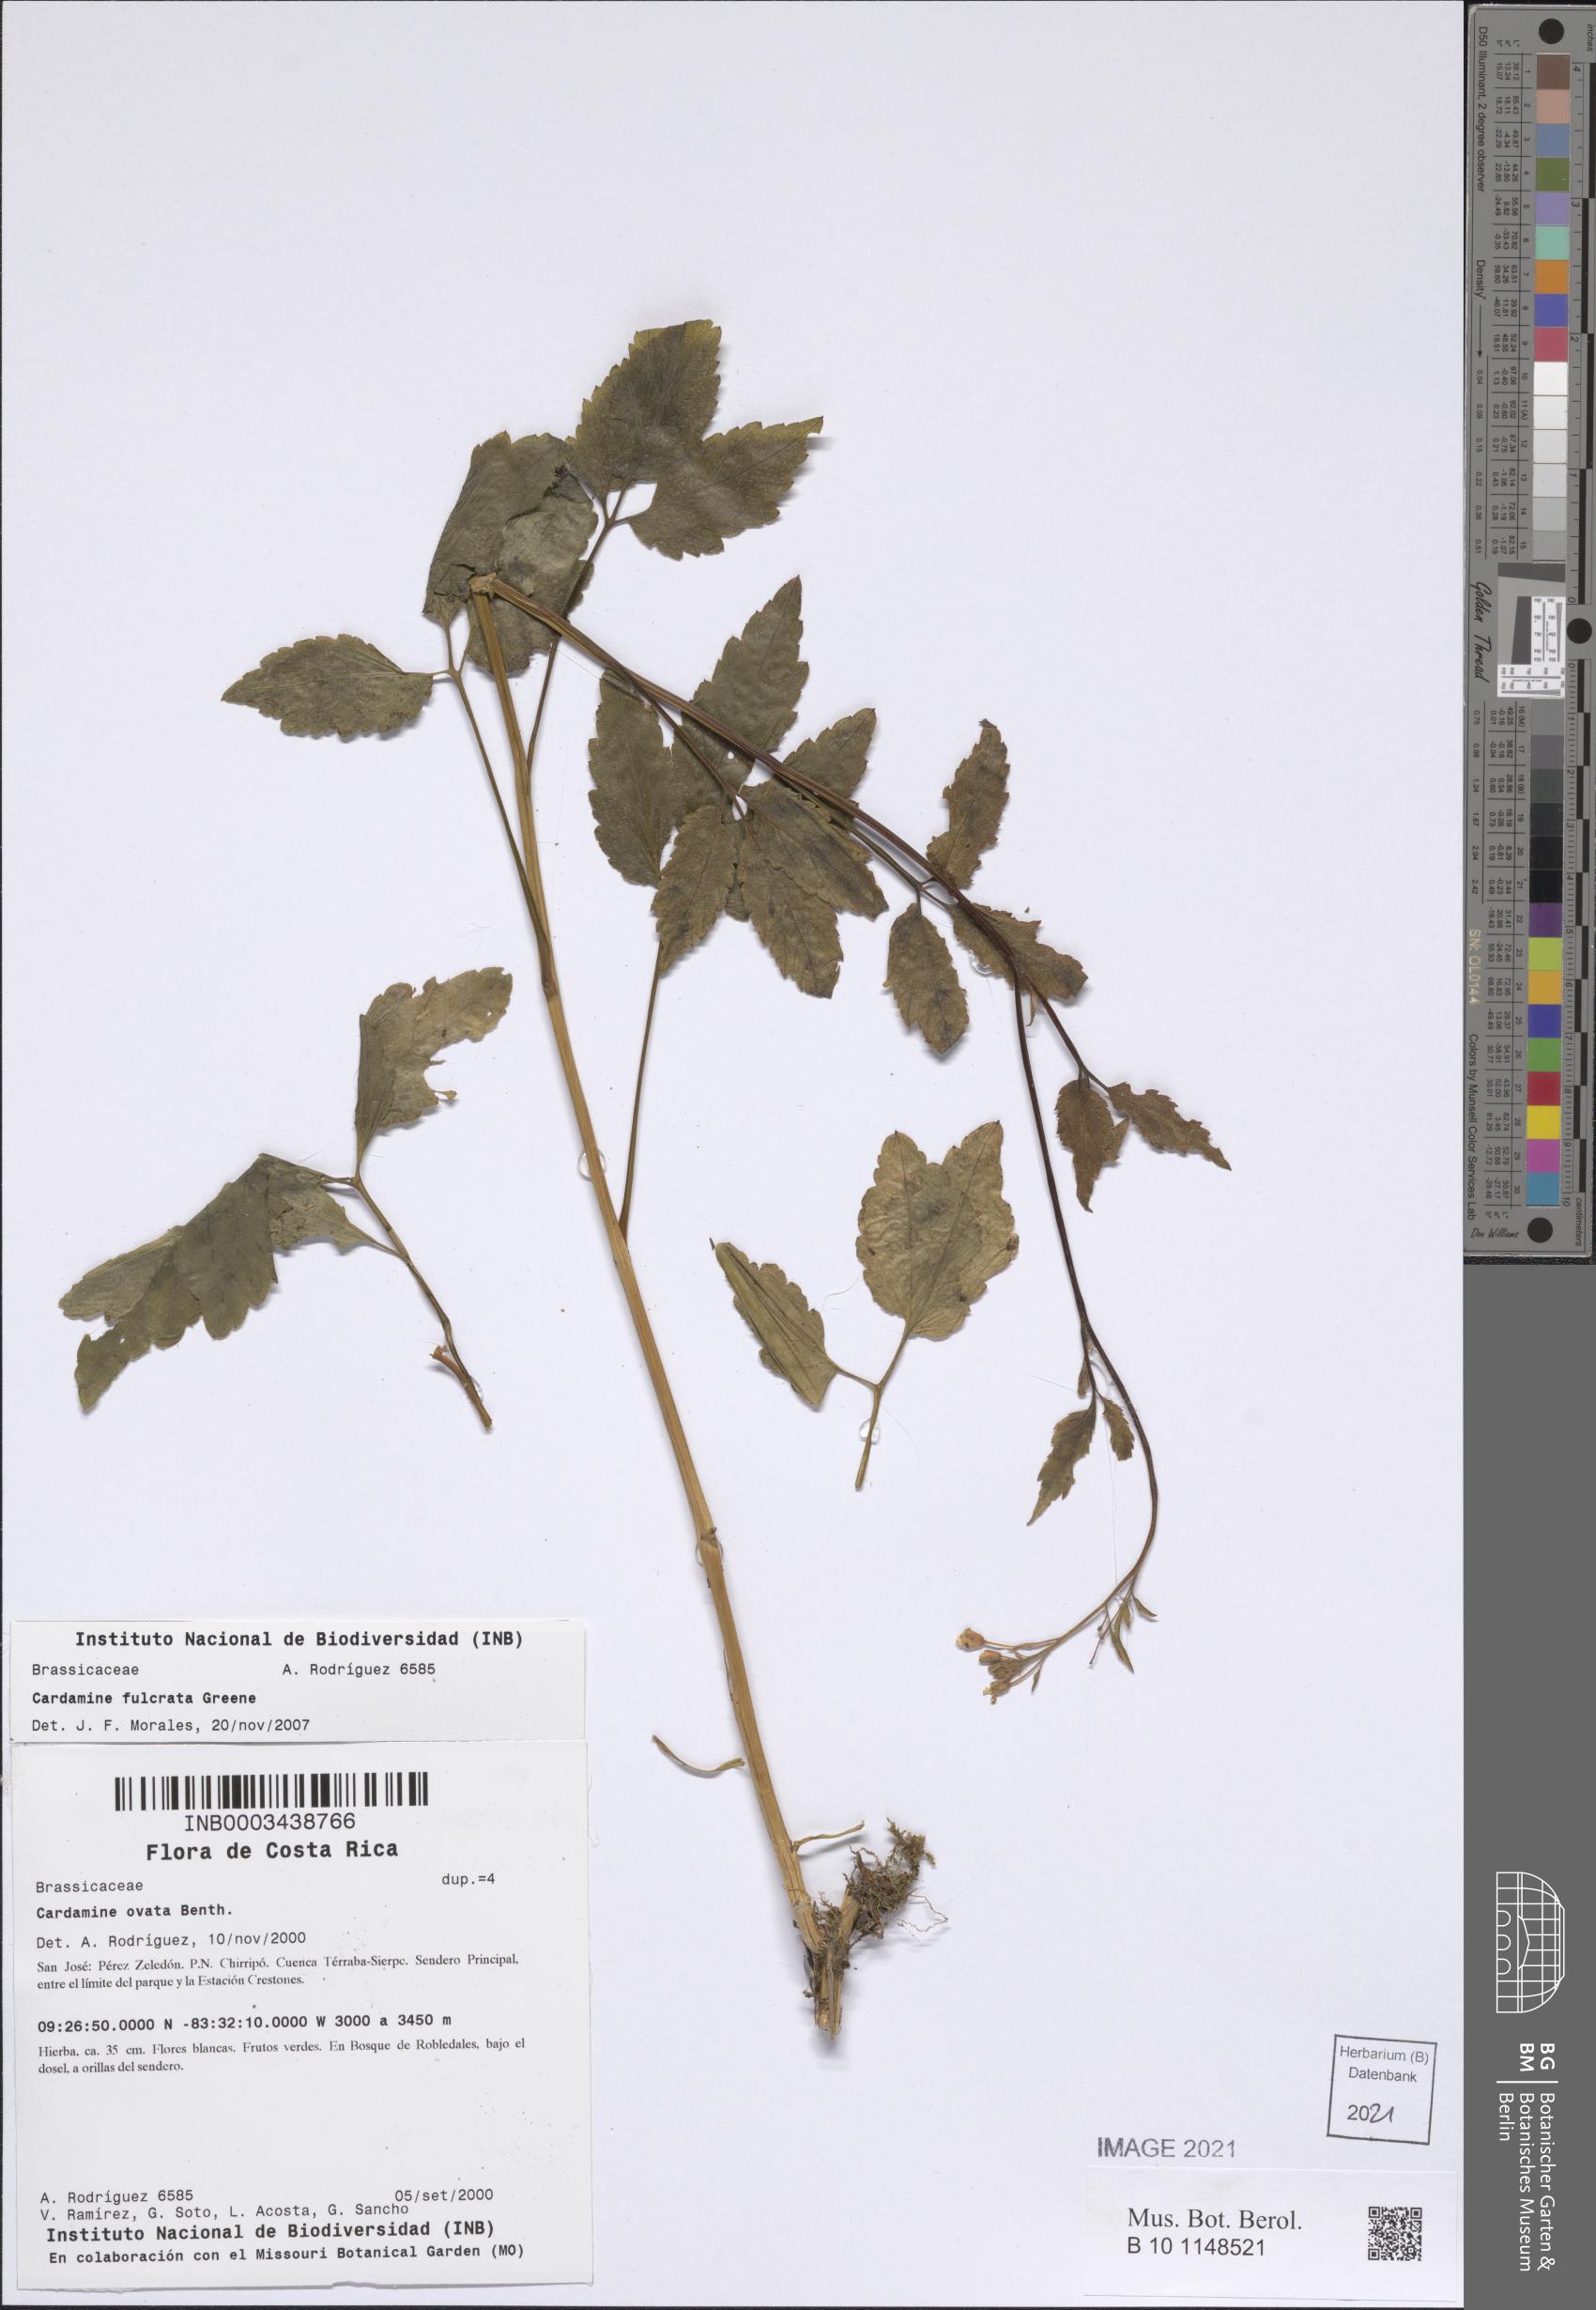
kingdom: Plantae
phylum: Tracheophyta
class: Magnoliopsida
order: Brassicales
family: Brassicaceae
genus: Cardamine
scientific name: Cardamine fulcrata
